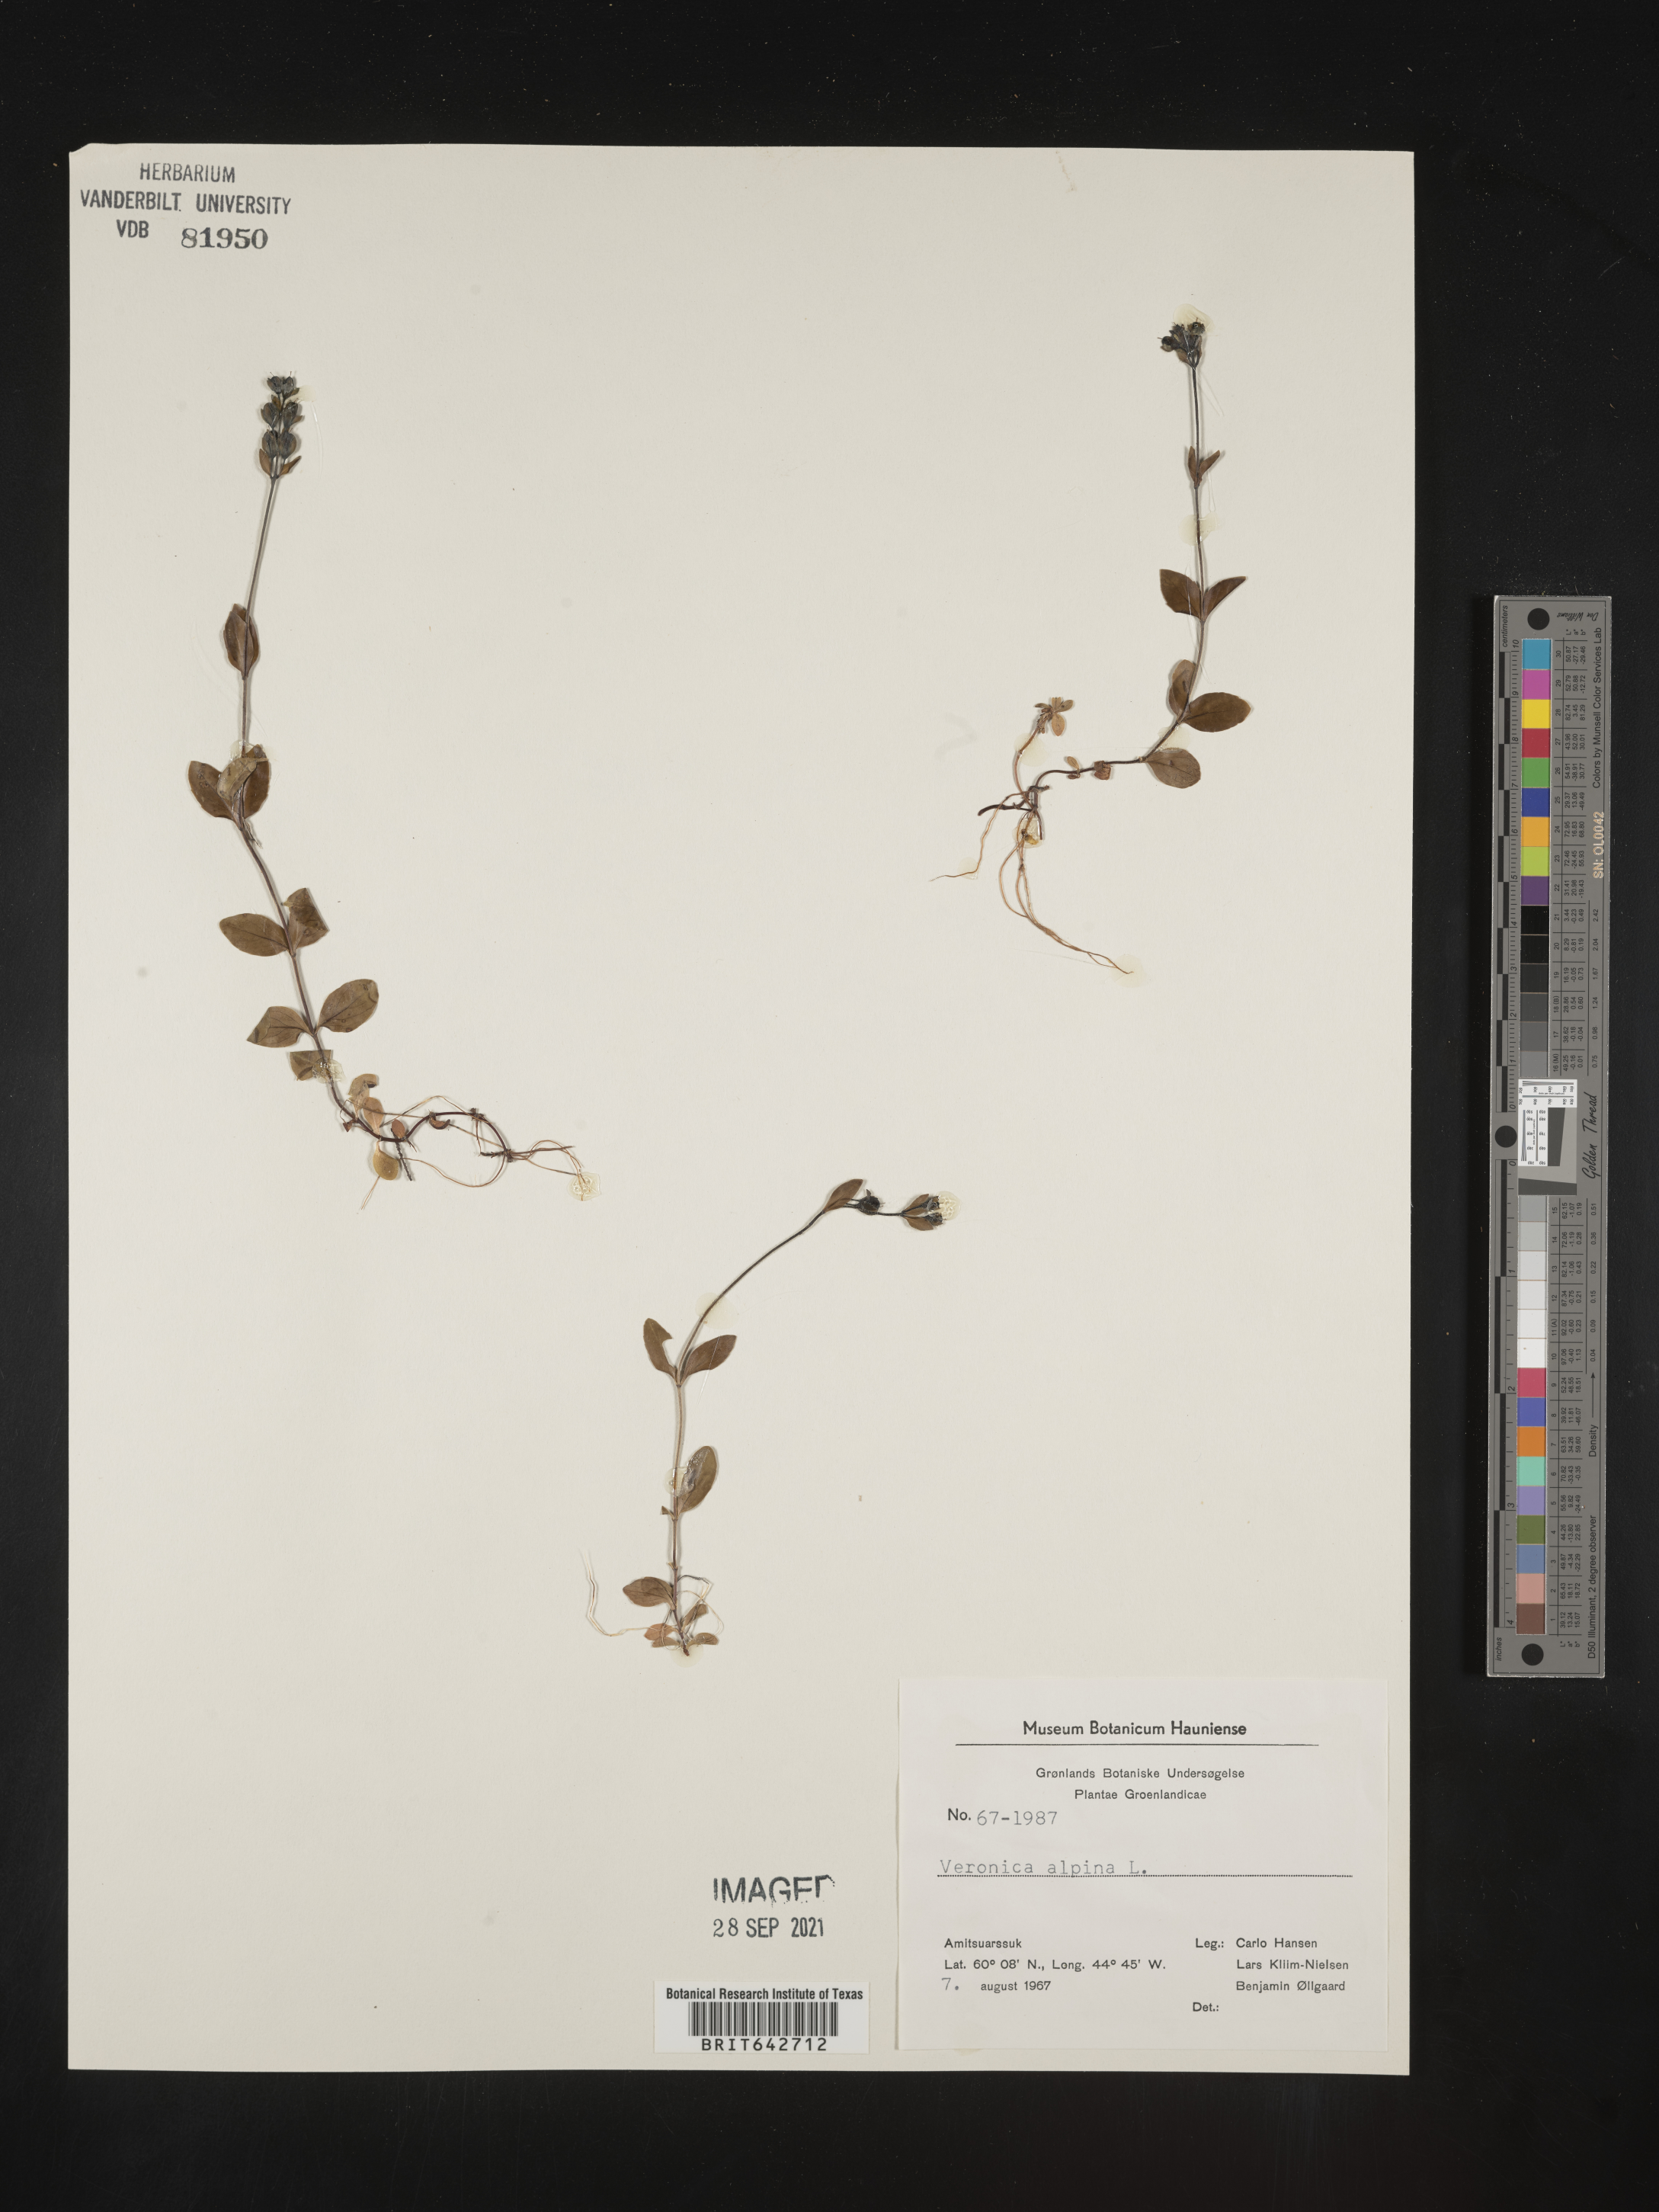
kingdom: Plantae
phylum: Tracheophyta
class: Magnoliopsida
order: Lamiales
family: Plantaginaceae
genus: Veronica
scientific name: Veronica
